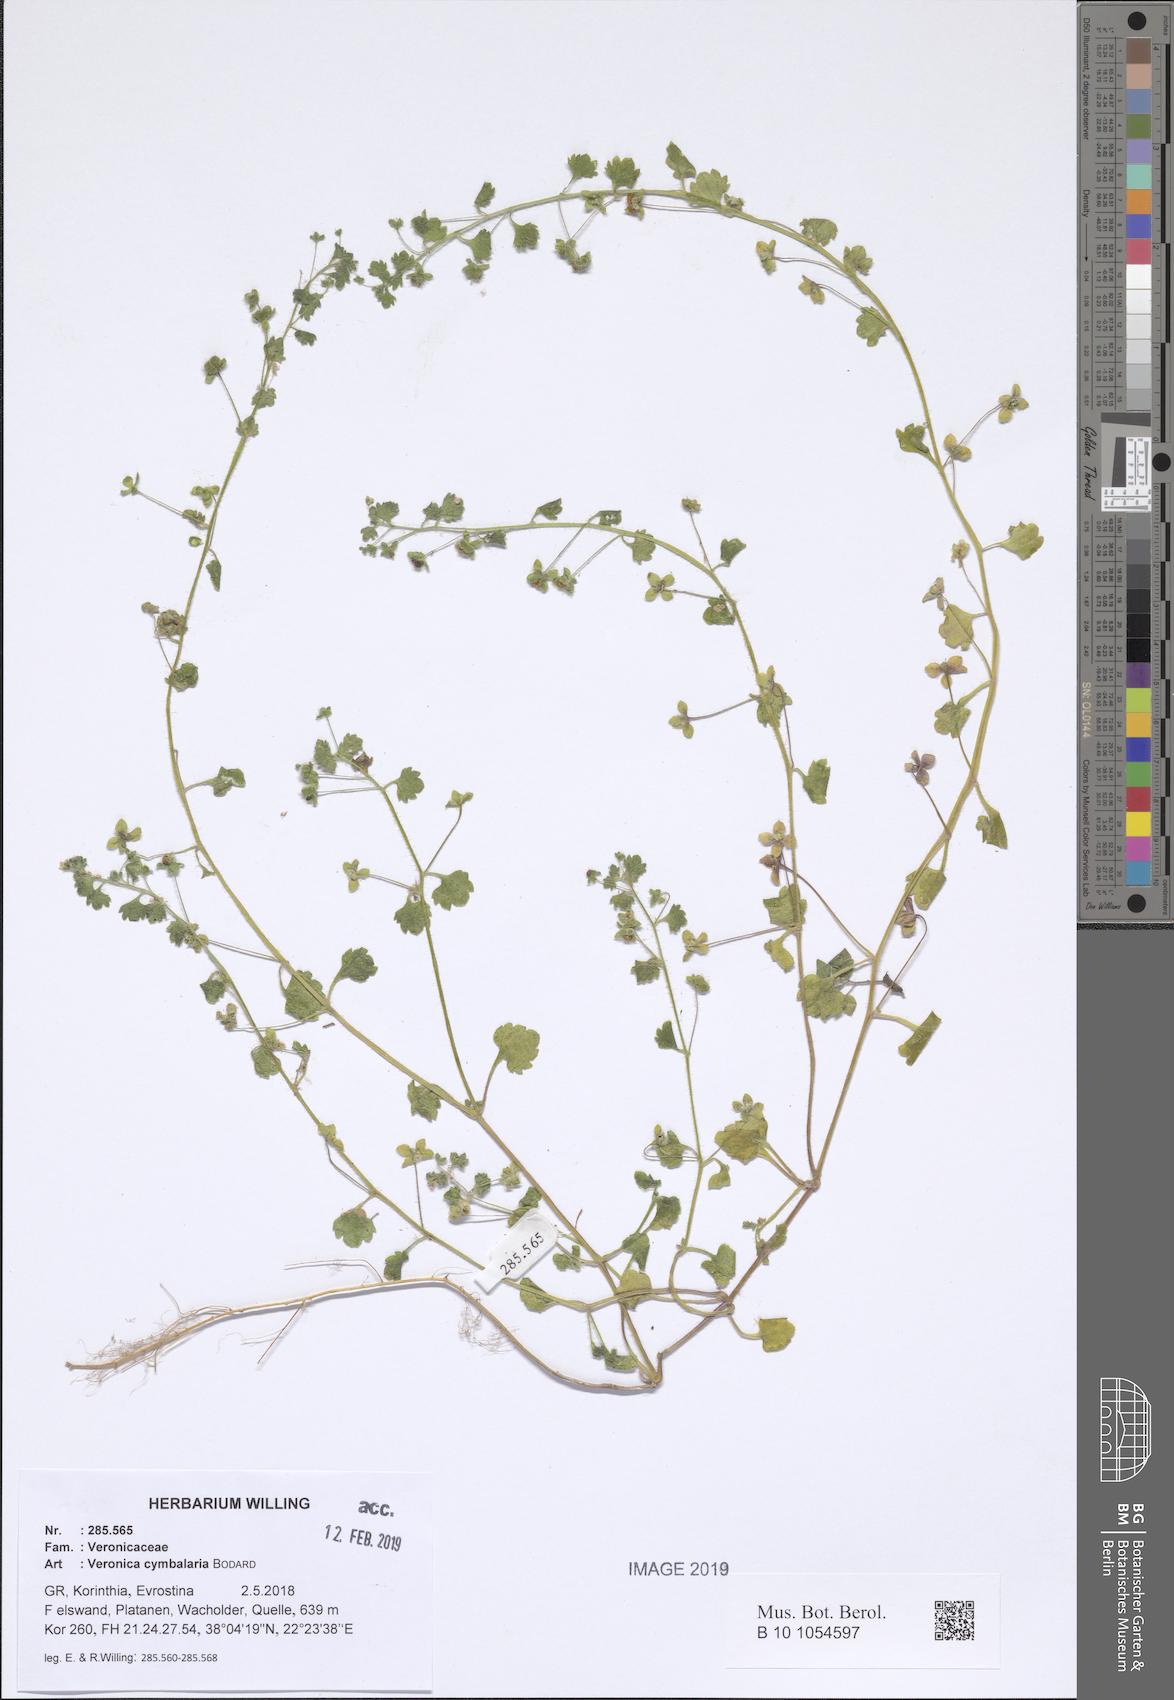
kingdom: Plantae
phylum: Tracheophyta
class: Magnoliopsida
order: Lamiales
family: Plantaginaceae
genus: Veronica
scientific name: Veronica cymbalaria
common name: Pale speedwell
